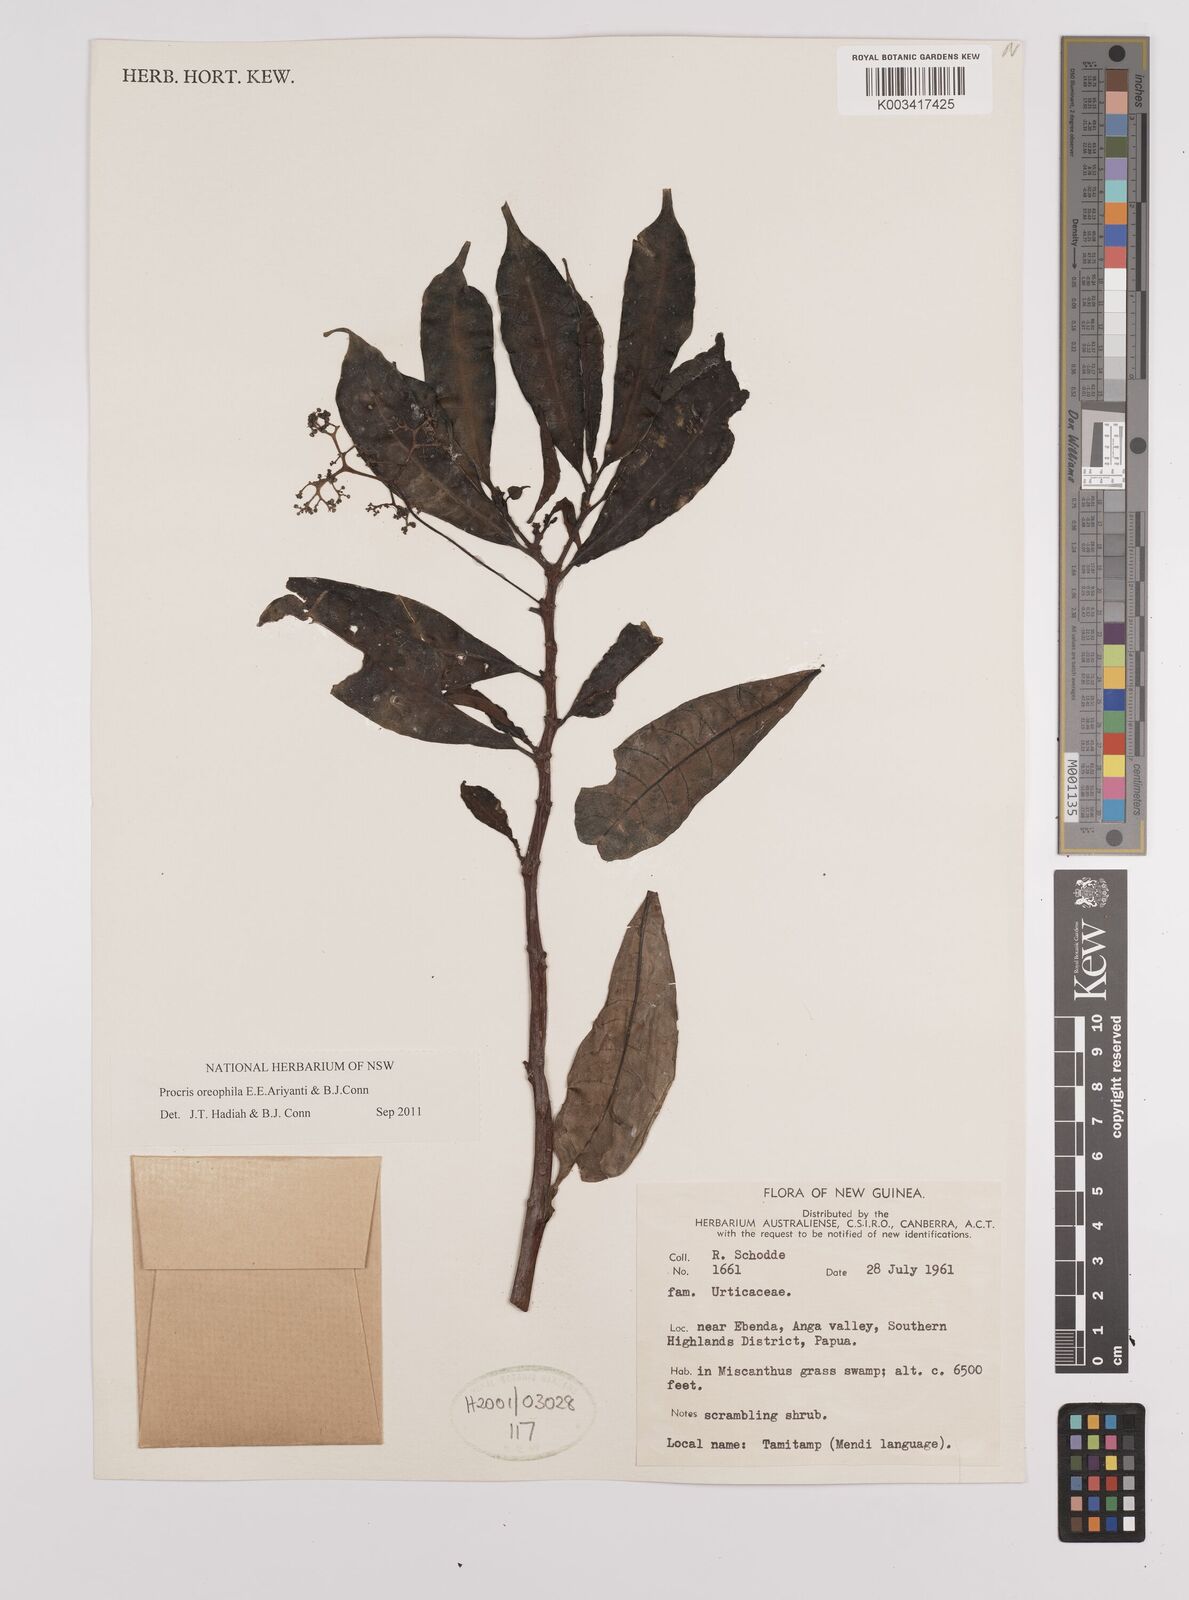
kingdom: Plantae
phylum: Tracheophyta
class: Magnoliopsida
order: Rosales
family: Urticaceae
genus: Procris
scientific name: Procris
